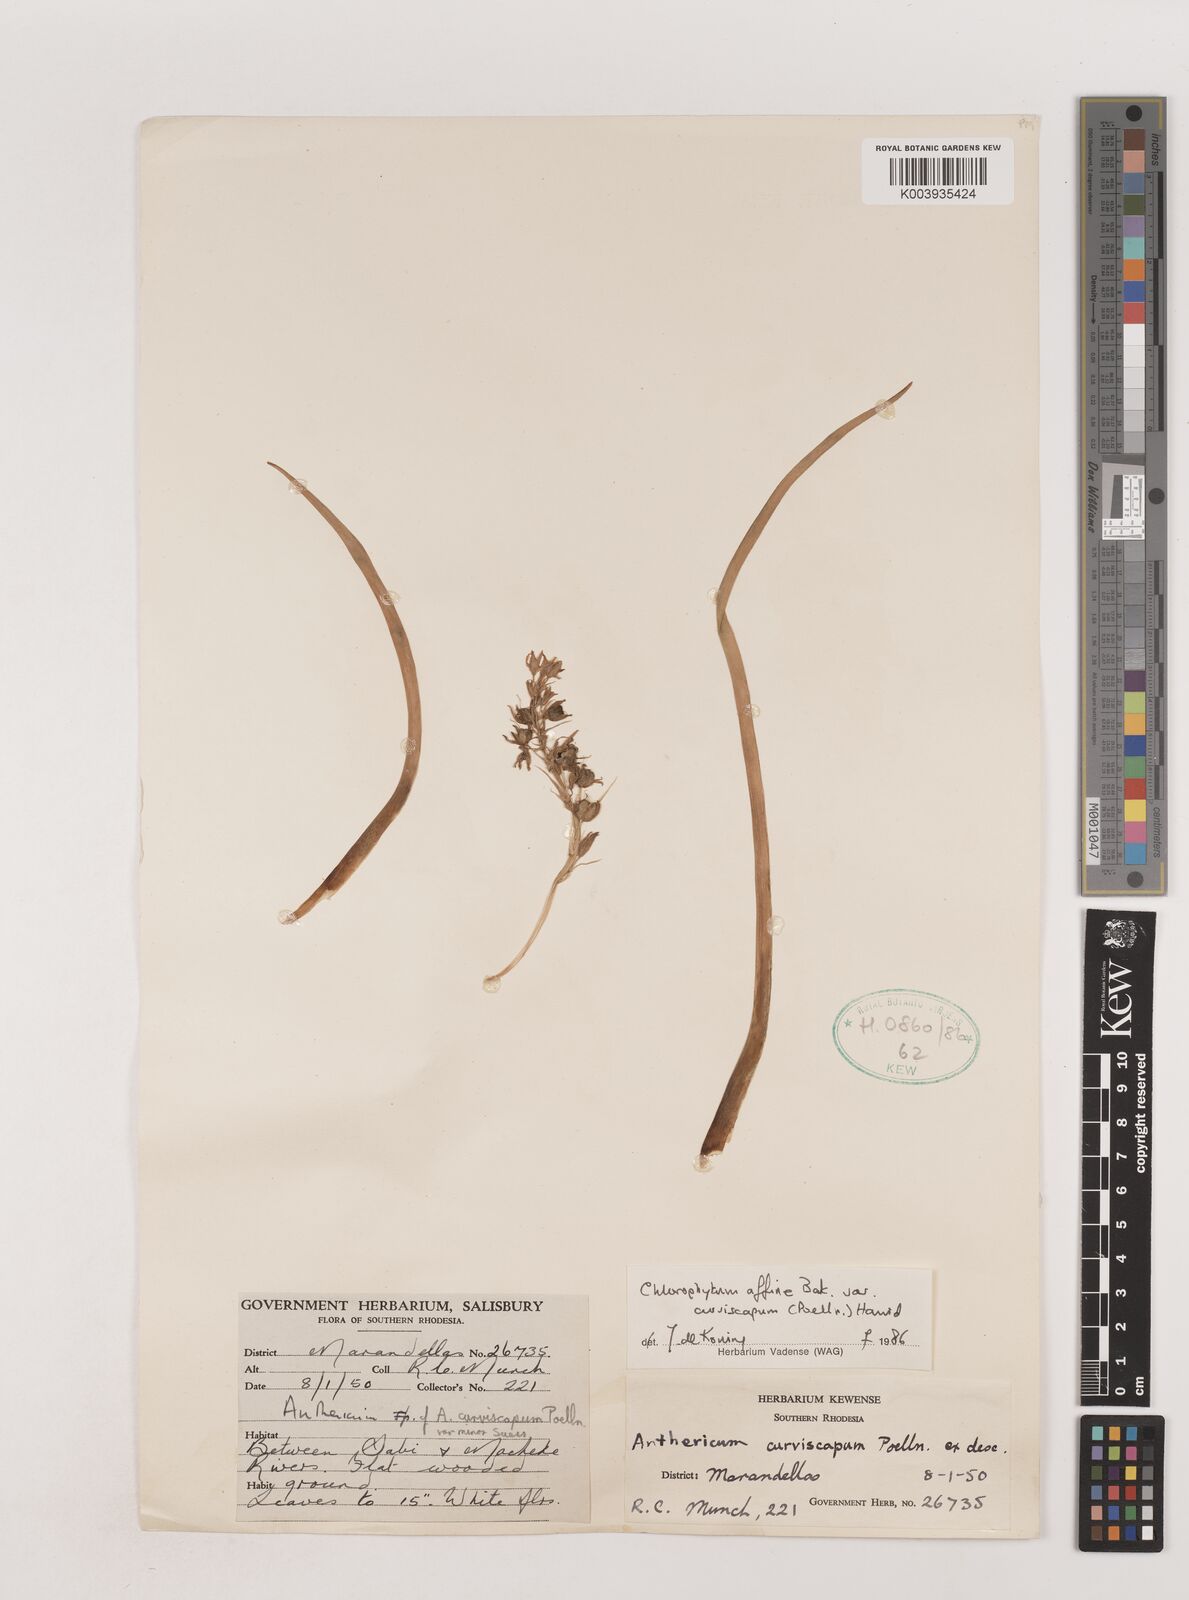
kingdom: Plantae
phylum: Tracheophyta
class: Liliopsida
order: Asparagales
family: Asparagaceae
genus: Chlorophytum
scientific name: Chlorophytum tordense
